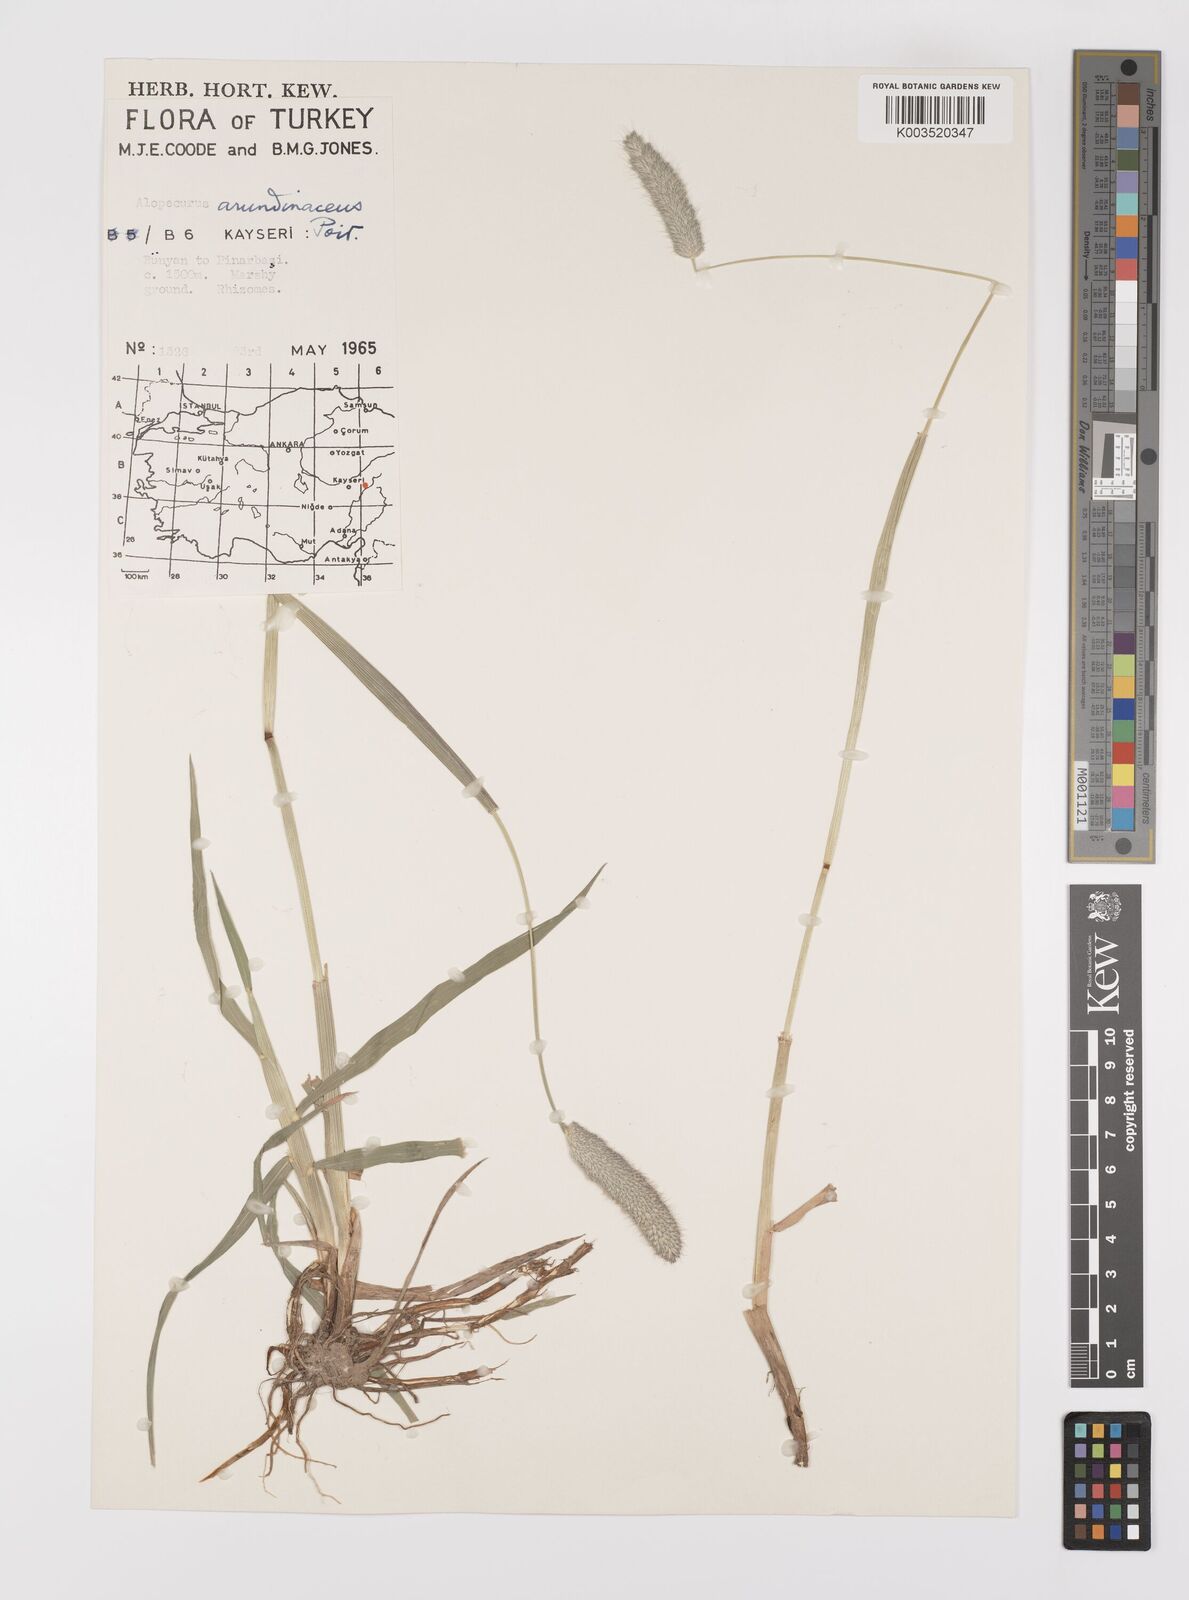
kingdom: Plantae
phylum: Tracheophyta
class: Liliopsida
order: Poales
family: Poaceae
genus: Alopecurus
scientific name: Alopecurus arundinaceus
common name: Creeping meadow foxtail
